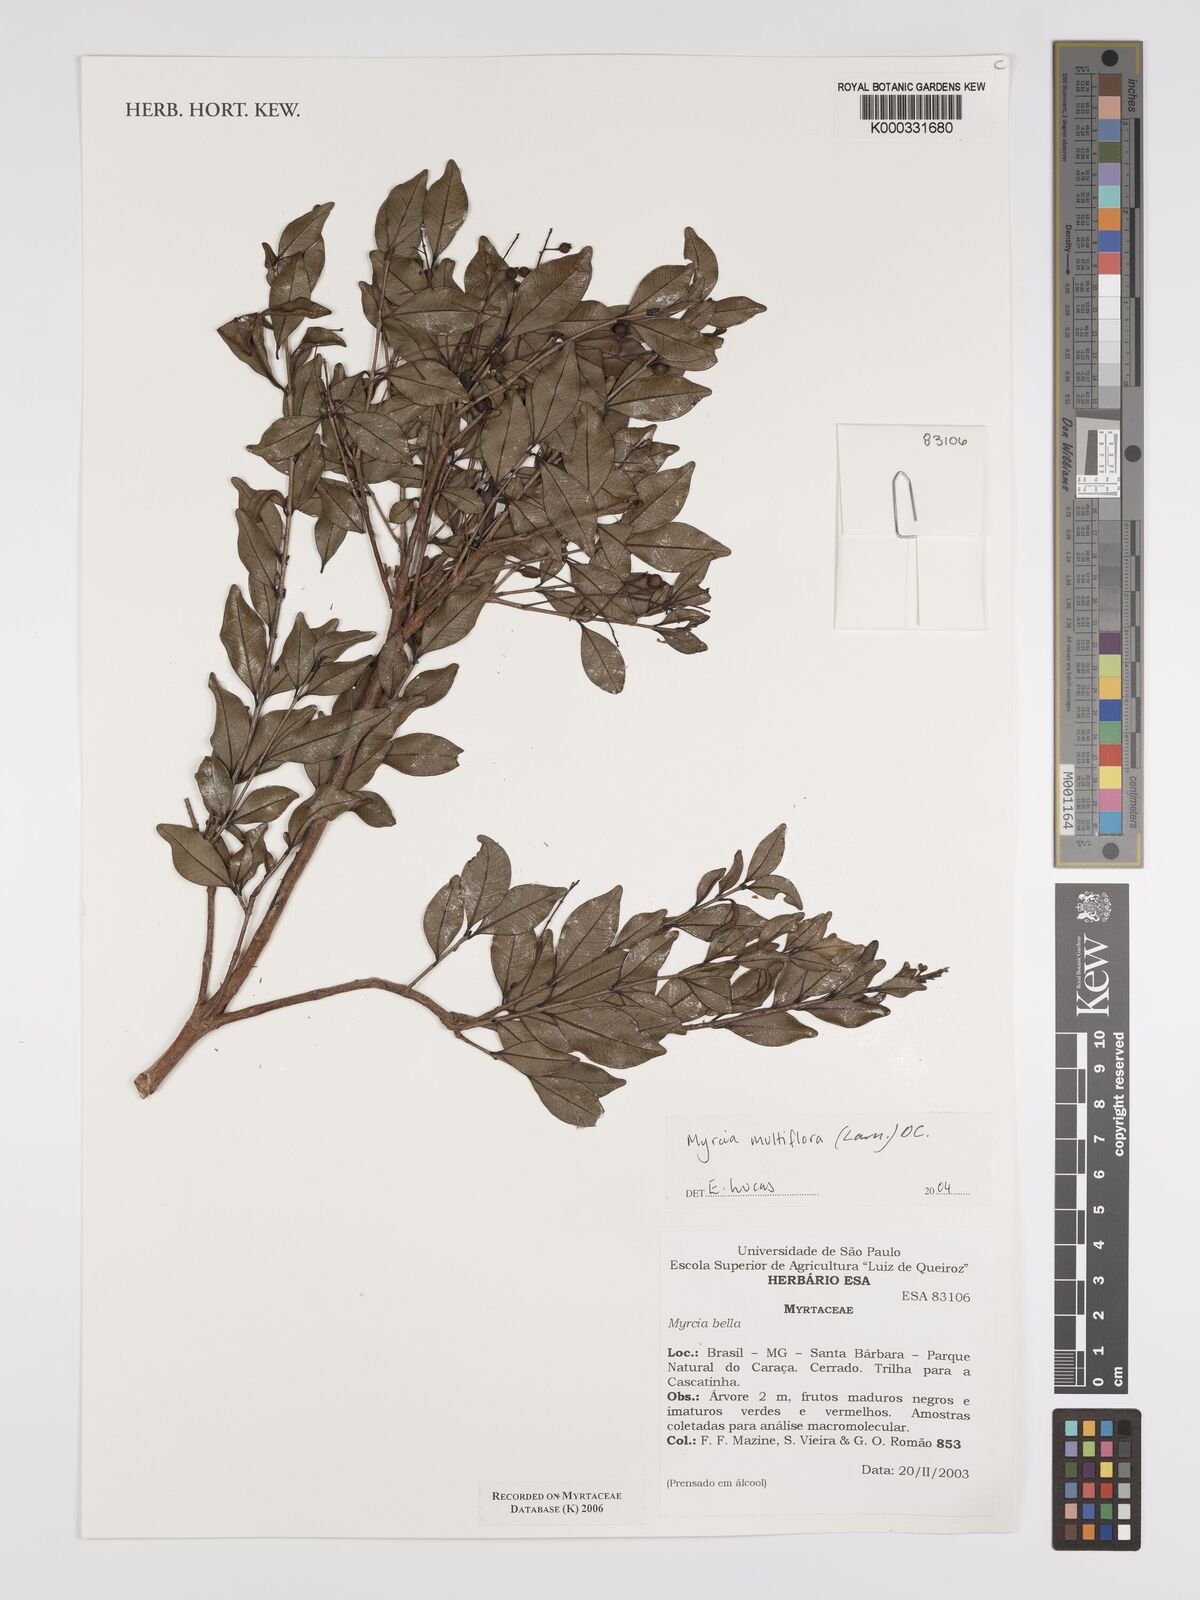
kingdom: Plantae
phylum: Tracheophyta
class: Magnoliopsida
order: Myrtales
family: Myrtaceae
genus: Myrcia
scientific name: Myrcia multiflora
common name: Pedra hume
